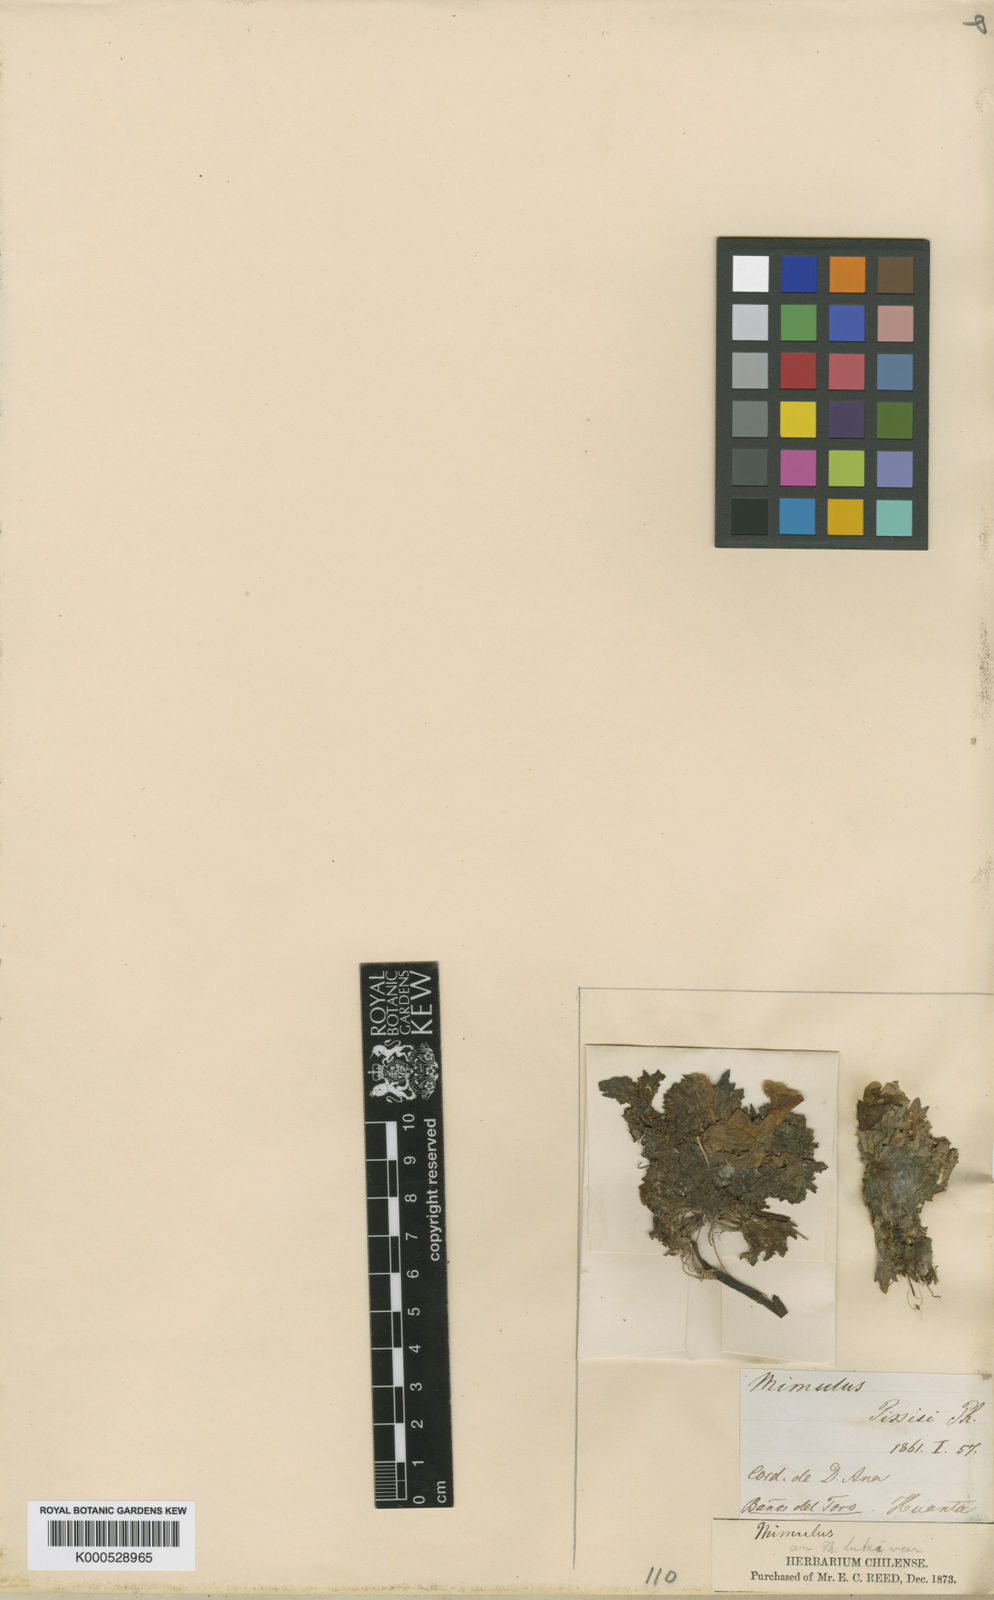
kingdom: Plantae
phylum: Tracheophyta
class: Magnoliopsida
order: Lamiales
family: Phrymaceae
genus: Erythranthe
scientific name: Erythranthe depressa
